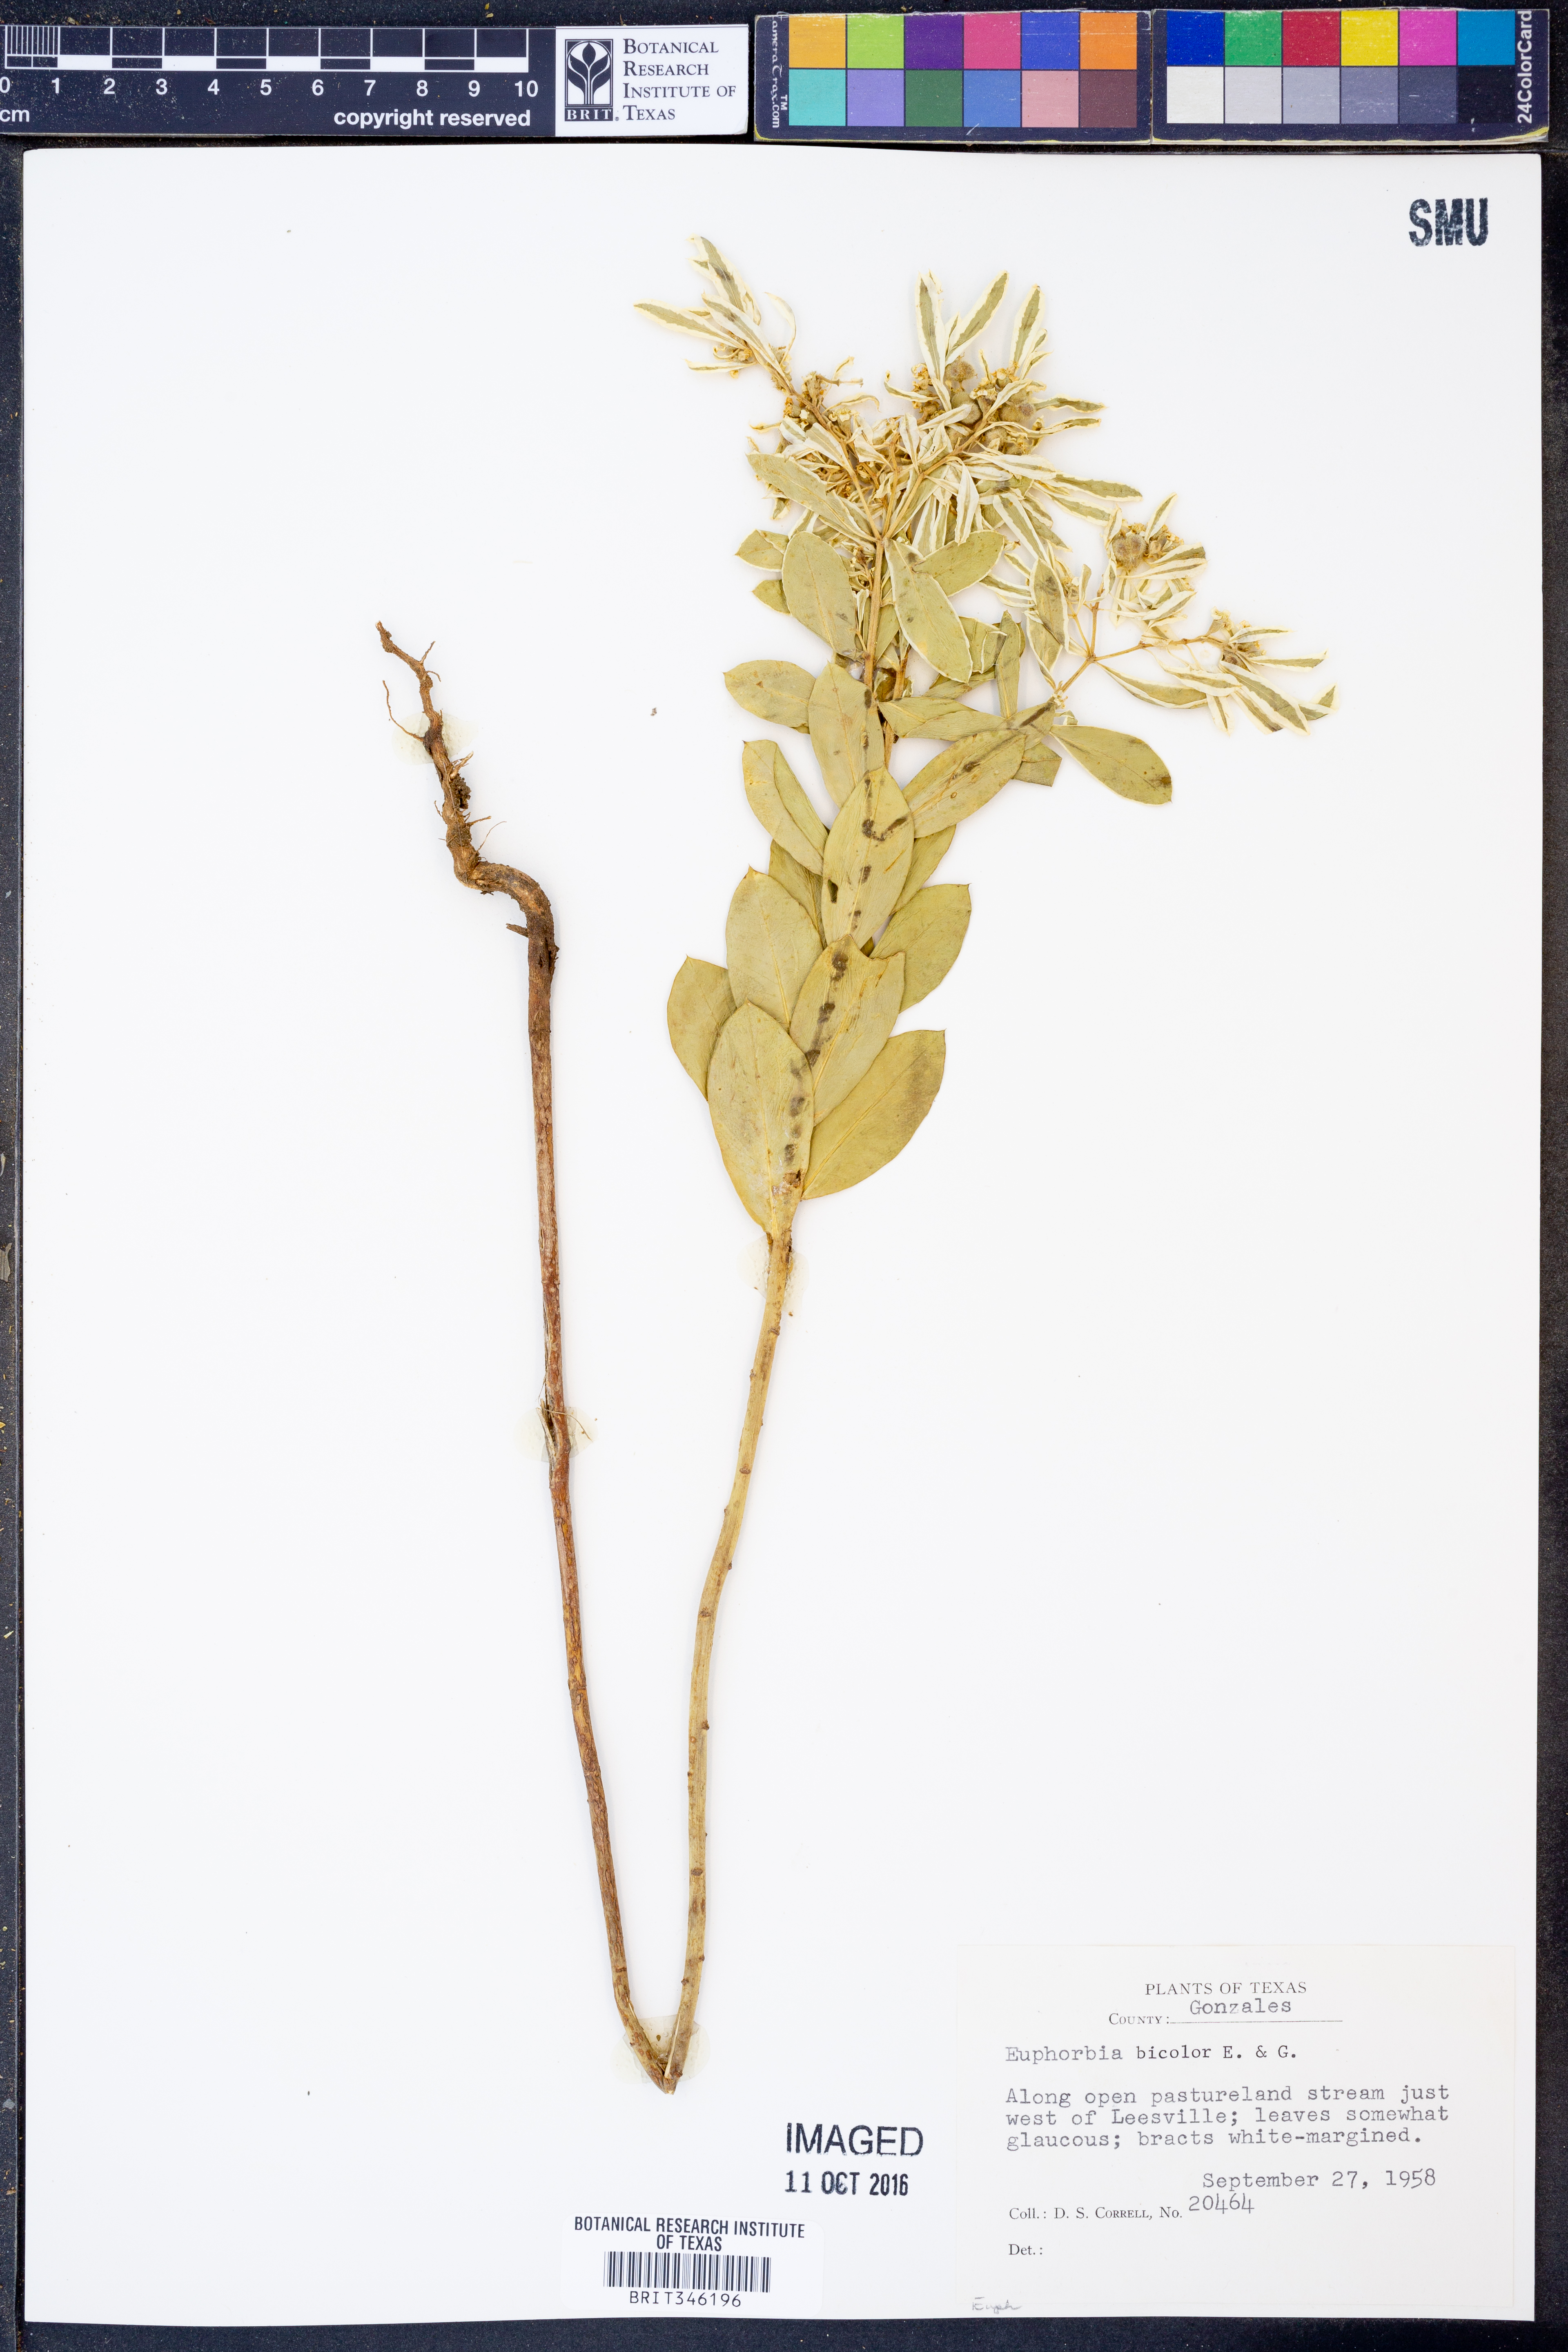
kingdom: Plantae
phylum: Tracheophyta
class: Magnoliopsida
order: Malpighiales
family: Euphorbiaceae
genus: Euphorbia
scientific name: Euphorbia bicolor
